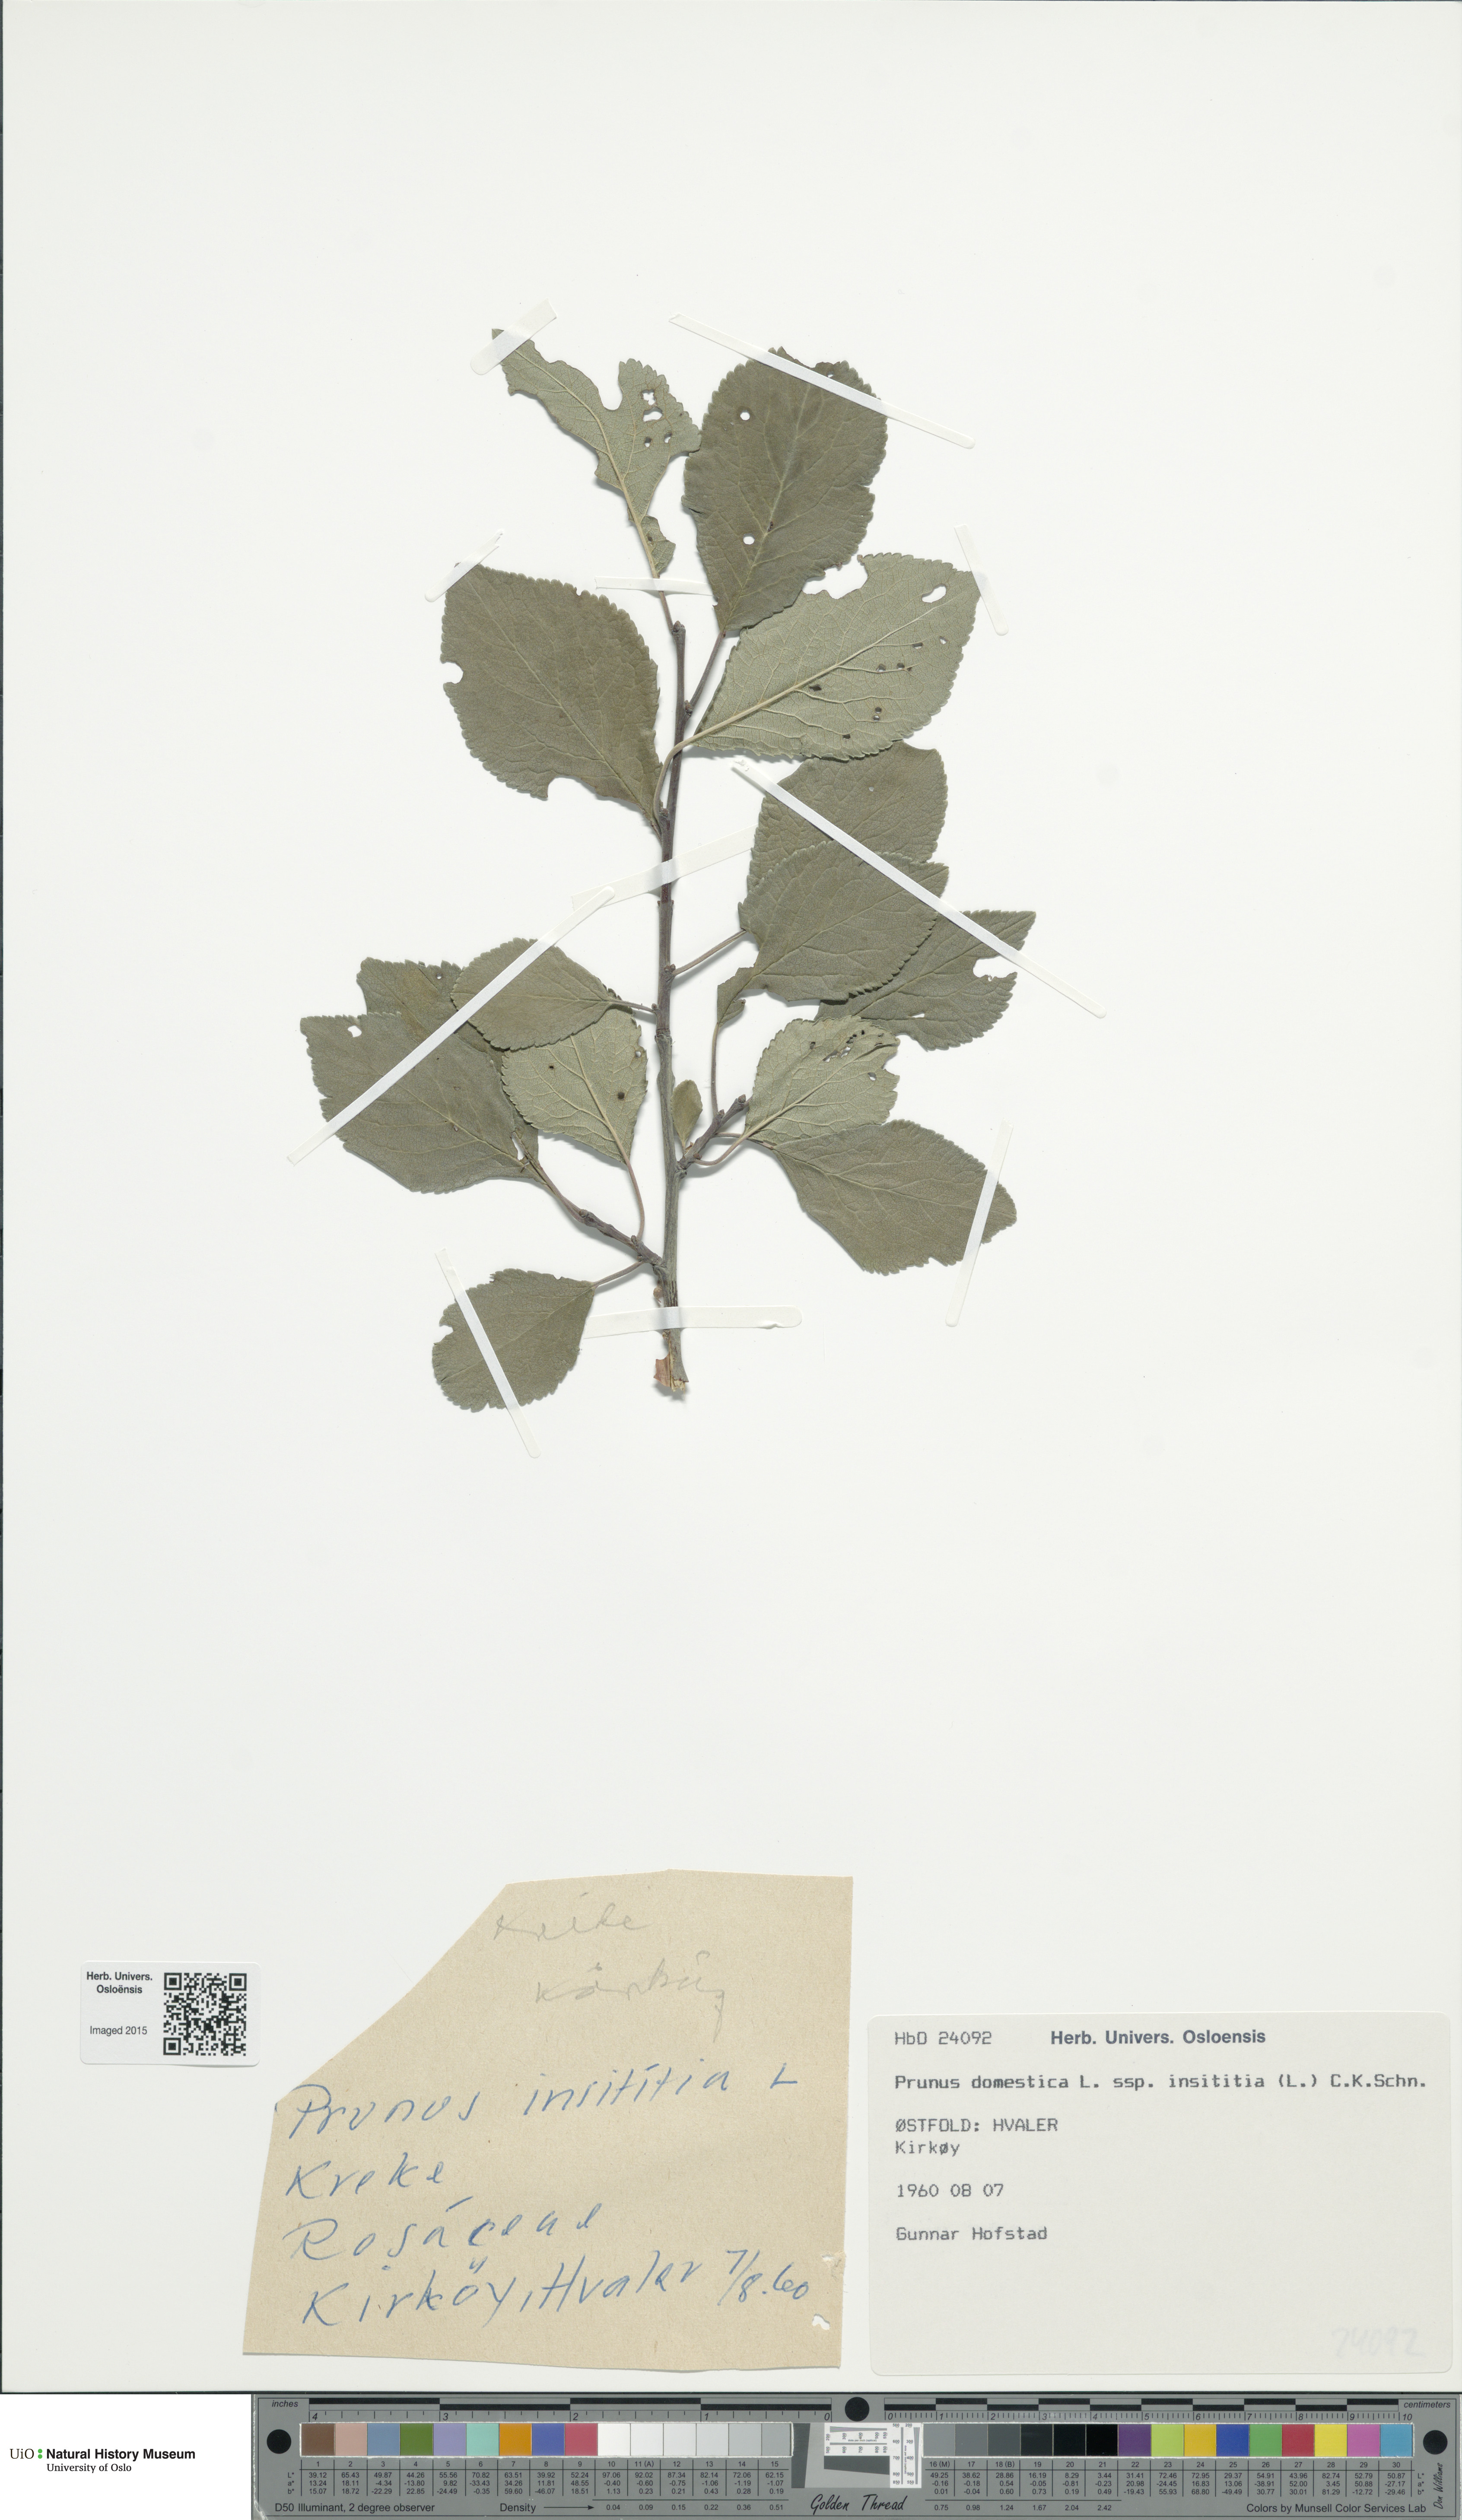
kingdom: Plantae
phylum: Tracheophyta
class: Magnoliopsida
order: Rosales
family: Rosaceae
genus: Prunus
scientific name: Prunus domestica
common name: Wild plum
